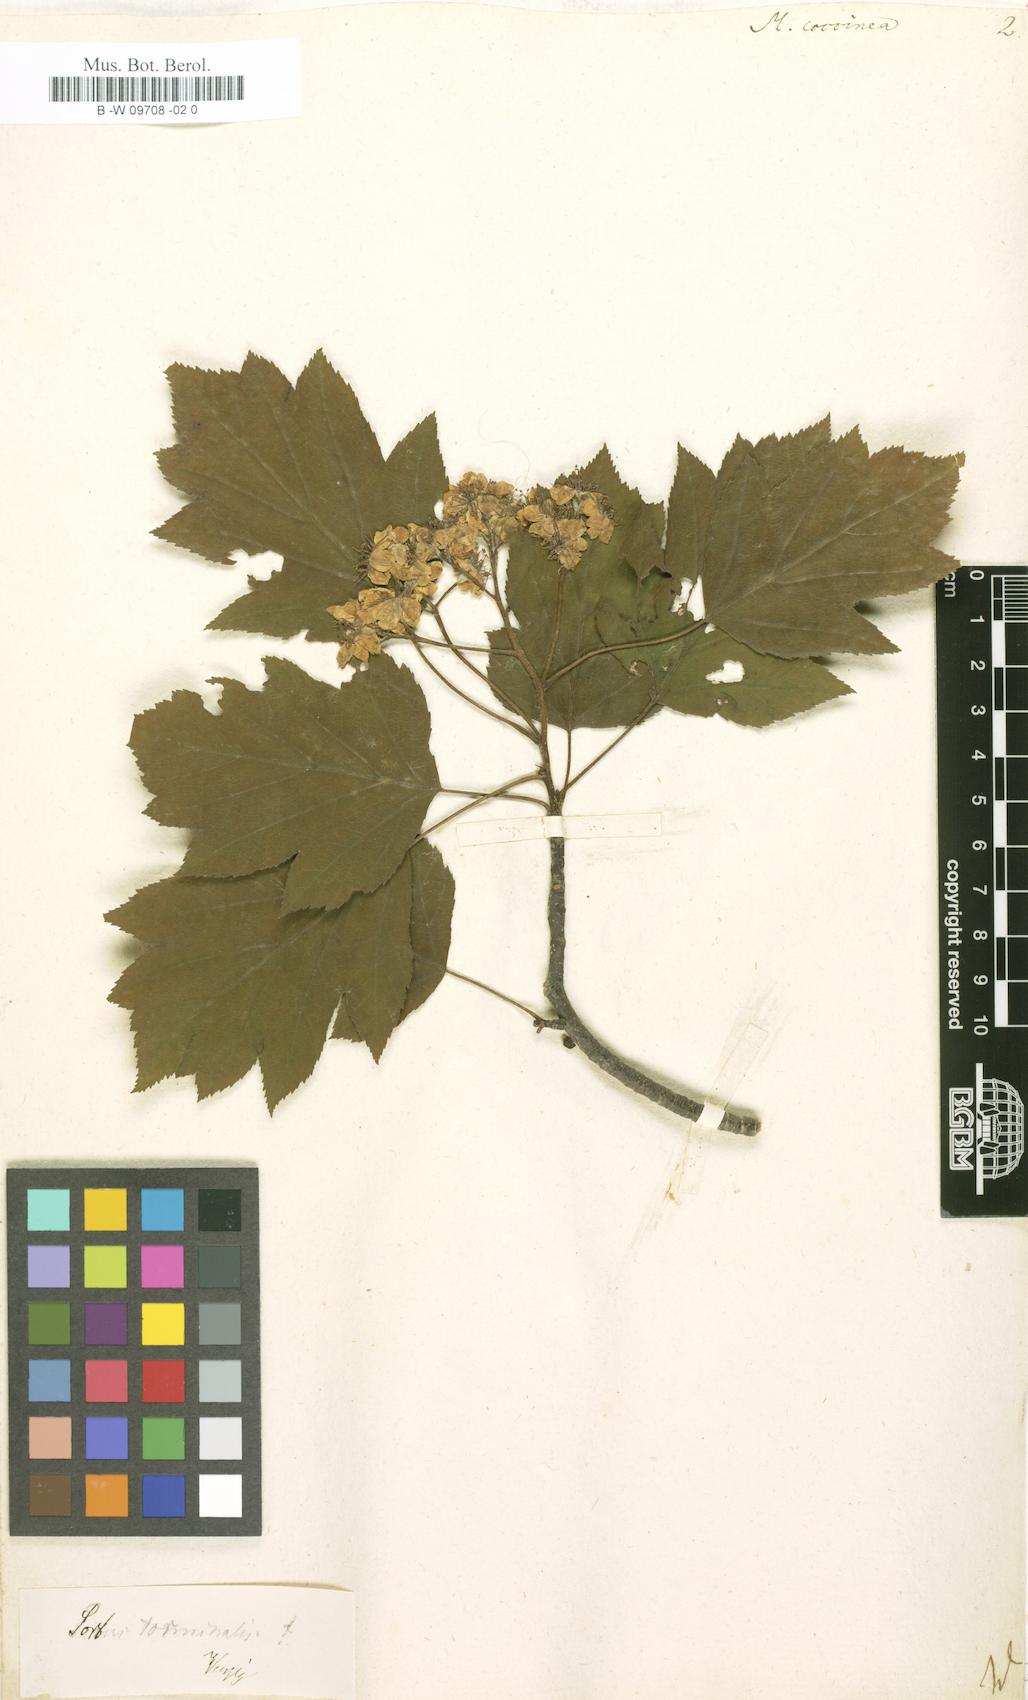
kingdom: Plantae
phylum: Tracheophyta
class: Magnoliopsida
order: Rosales
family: Rosaceae
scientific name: Rosaceae
